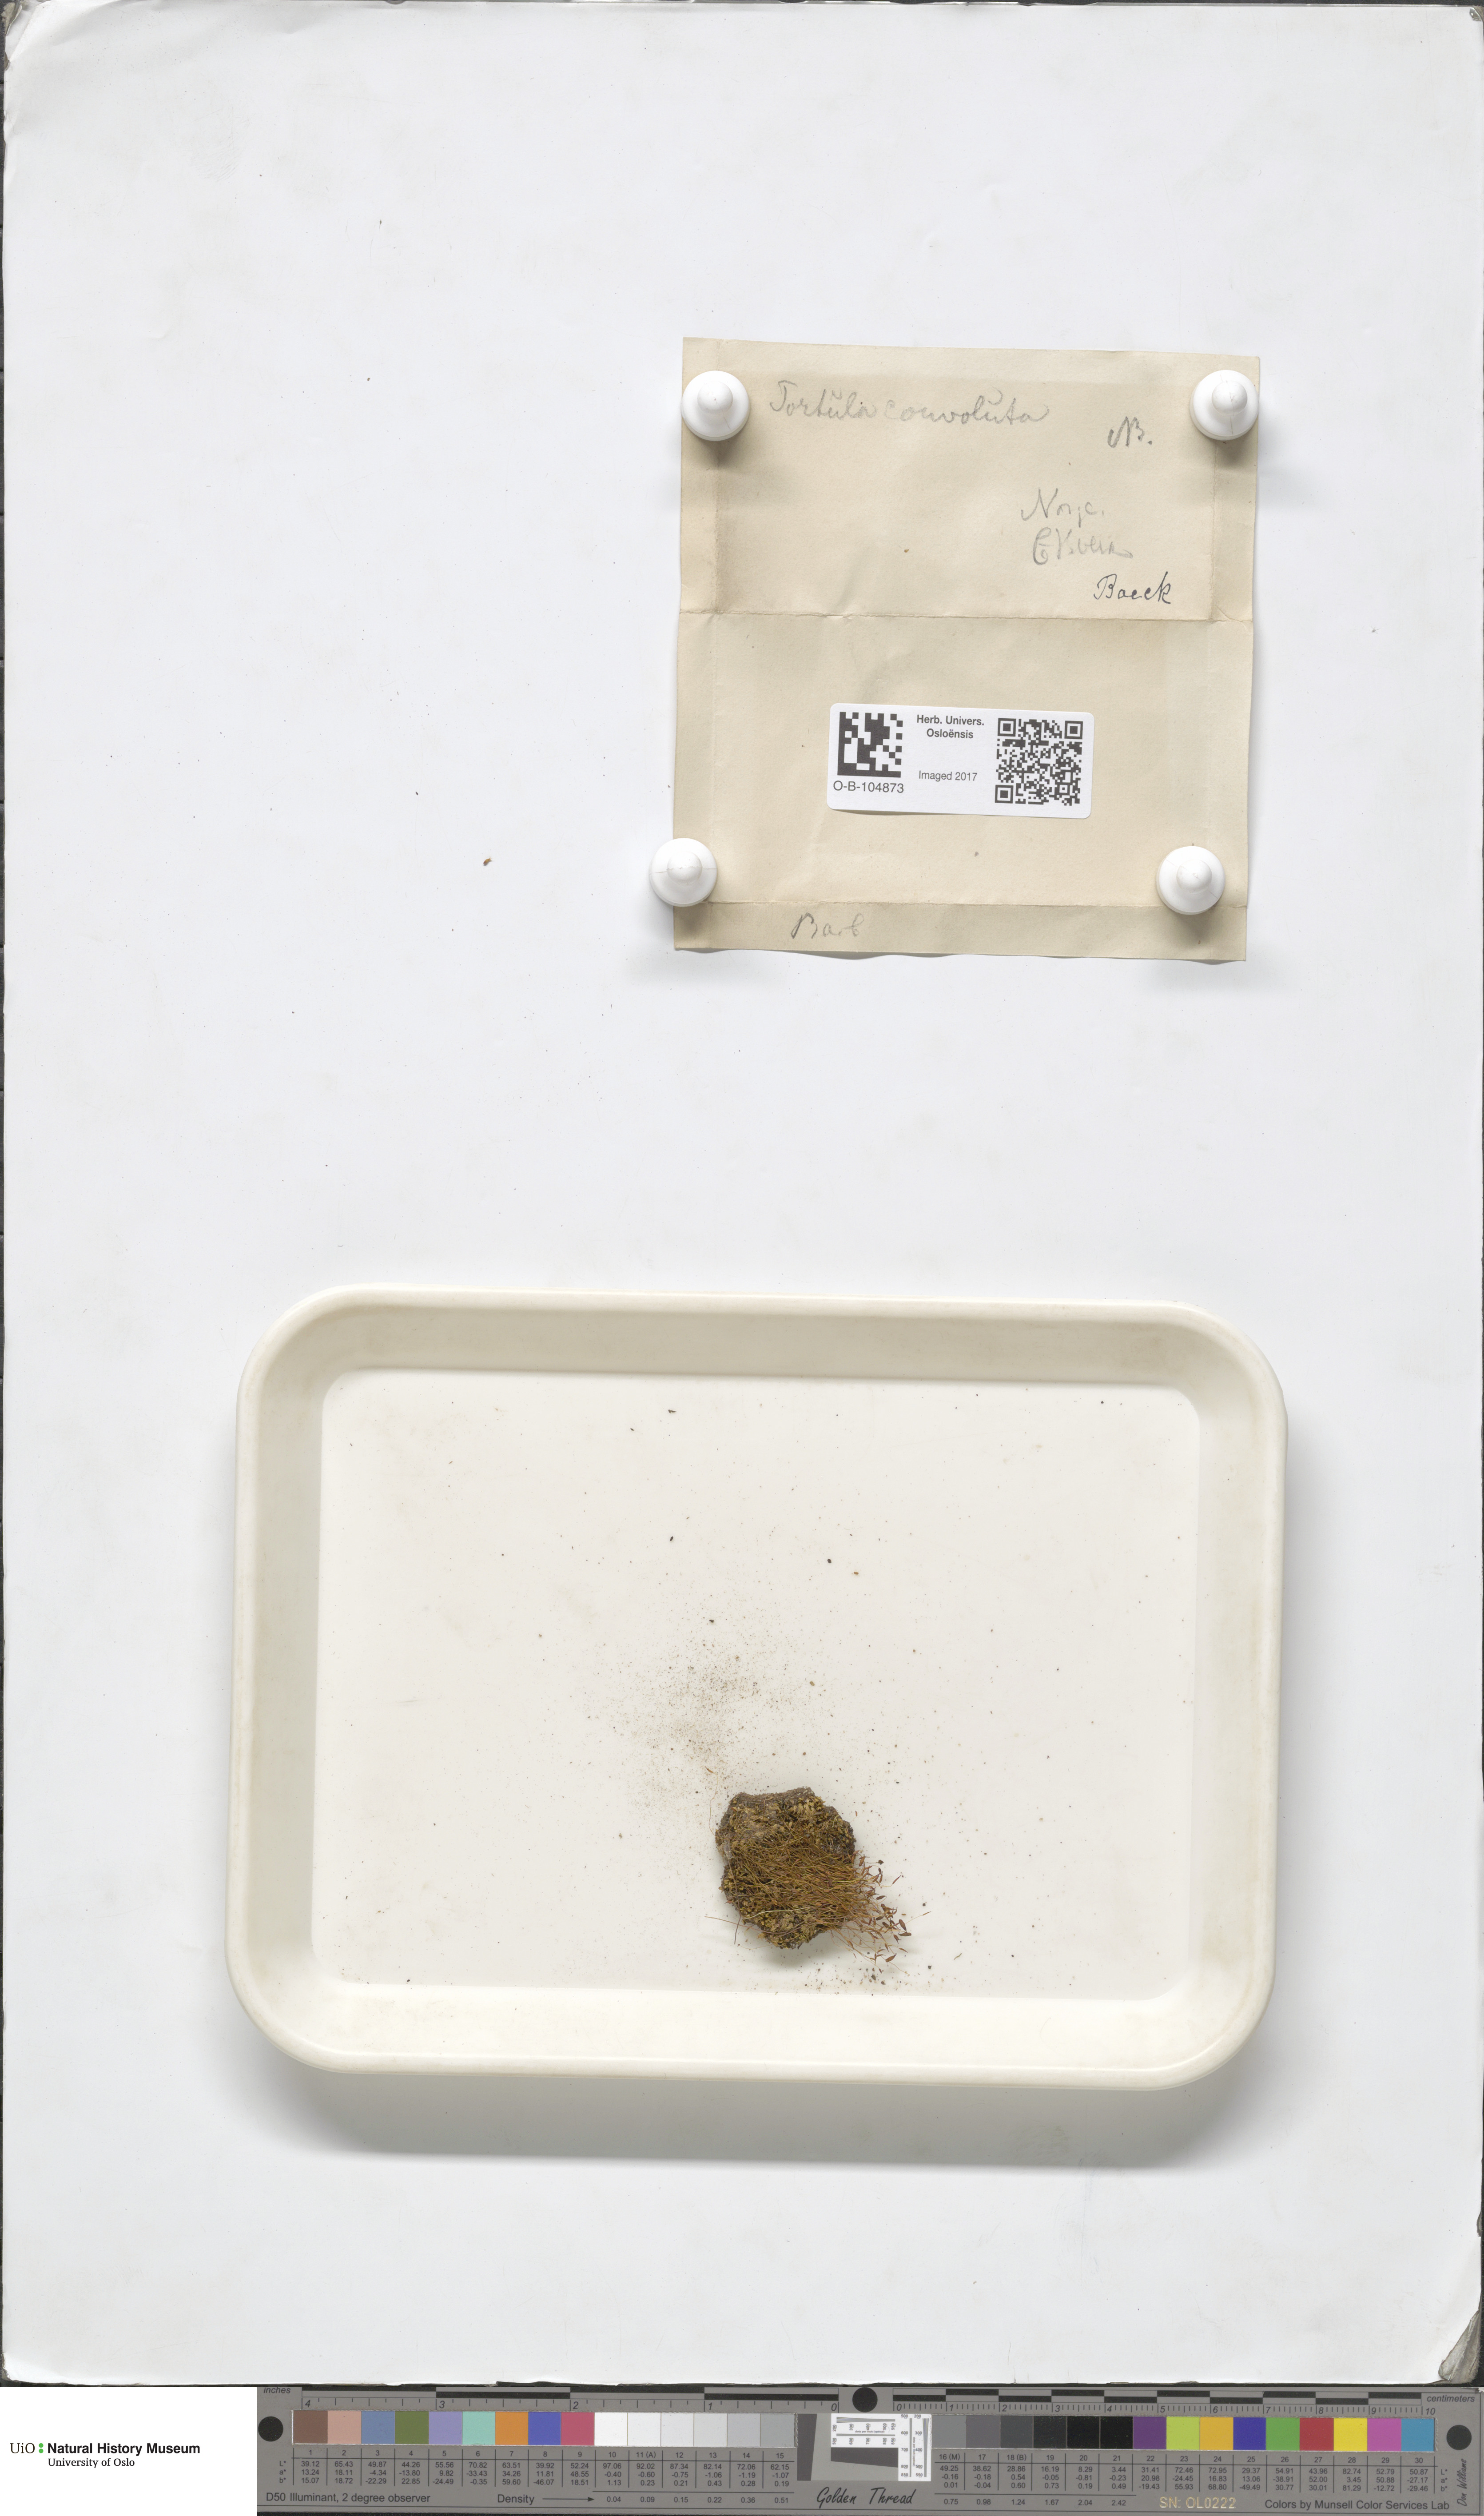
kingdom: Plantae
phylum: Bryophyta
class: Bryopsida
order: Pottiales
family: Pottiaceae
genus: Streblotrichum
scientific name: Streblotrichum convolutum
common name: Lesser bird's-claw beard-moss
